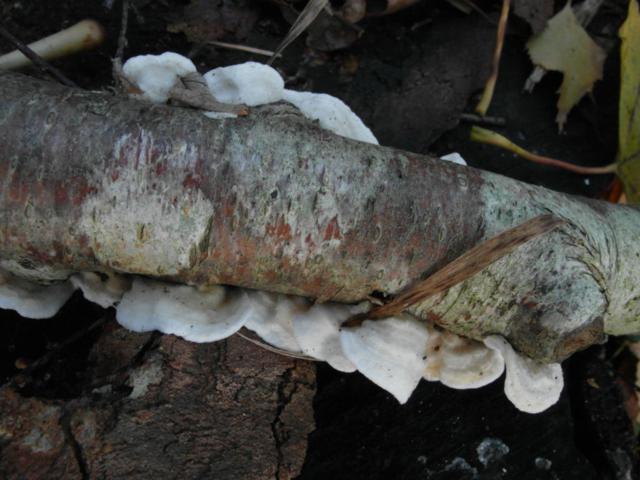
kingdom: Fungi
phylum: Basidiomycota
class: Agaricomycetes
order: Polyporales
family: Irpicaceae
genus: Byssomerulius
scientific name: Byssomerulius corium
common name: læder-åresvamp
